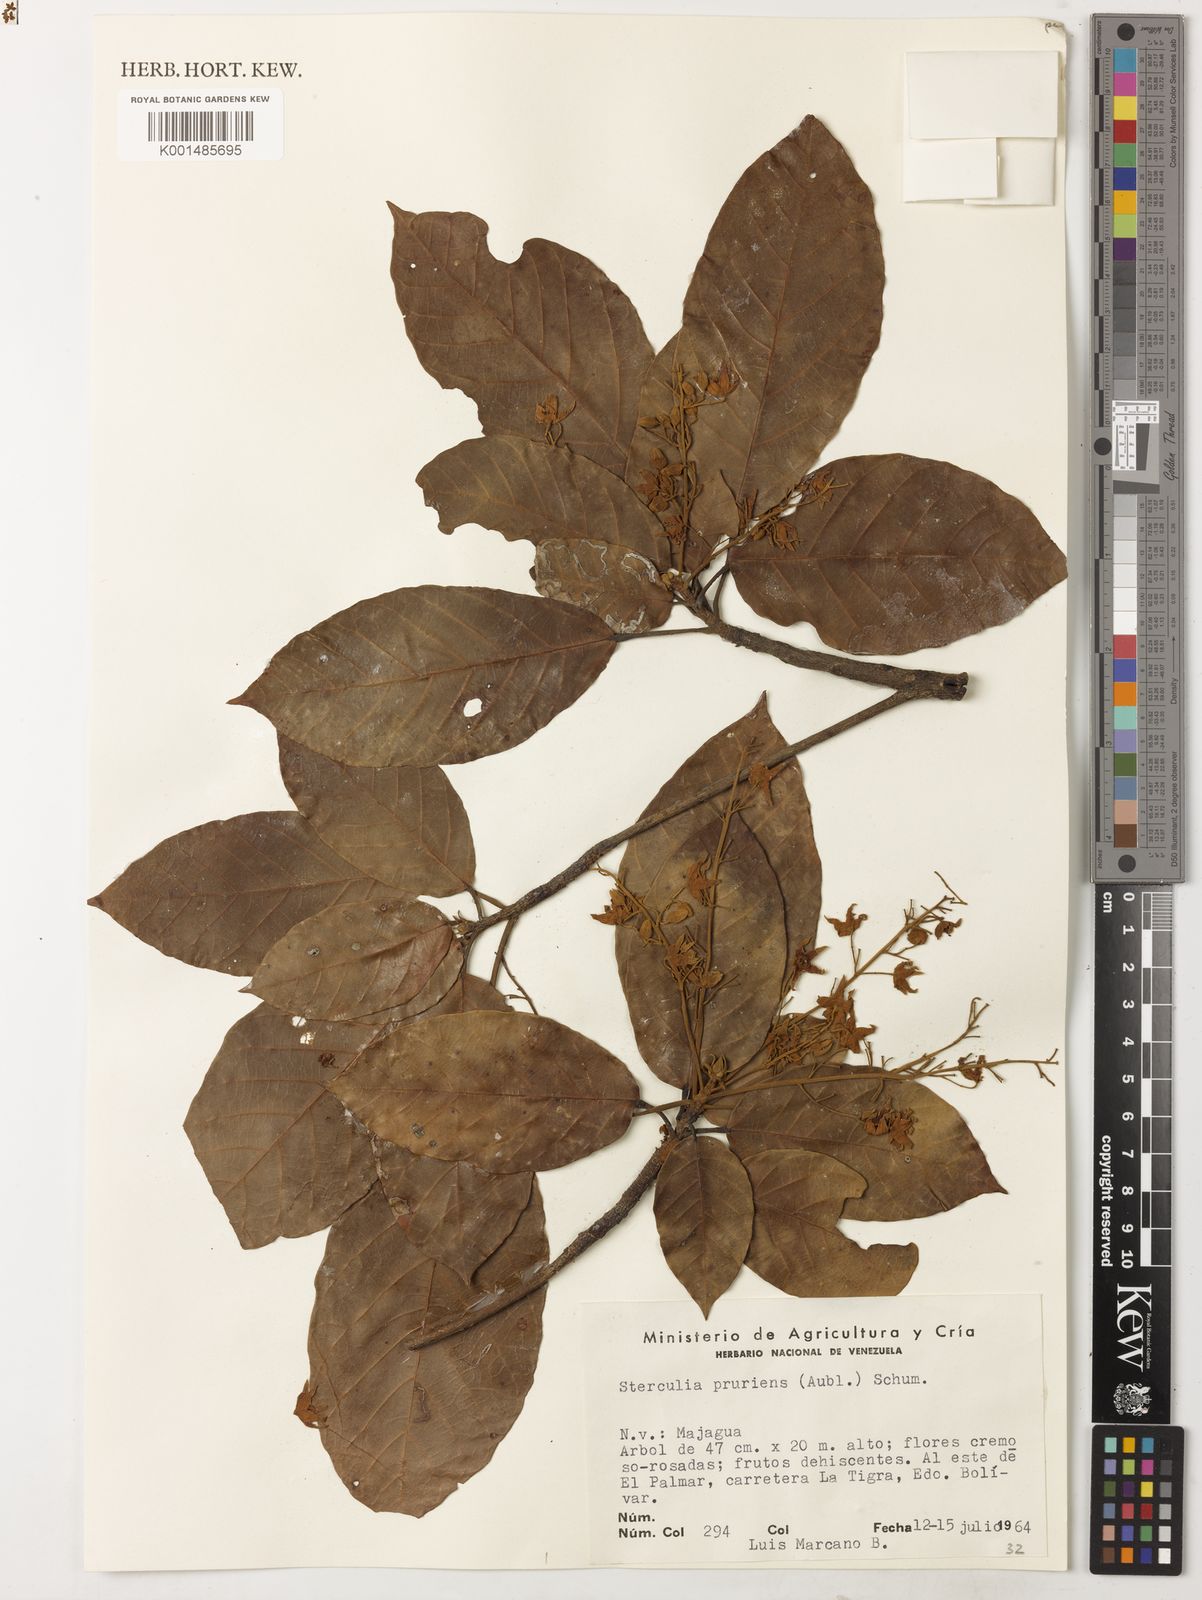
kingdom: Plantae
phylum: Tracheophyta
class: Magnoliopsida
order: Malvales
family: Malvaceae
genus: Sterculia
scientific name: Sterculia pruriens
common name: Grand mahot
